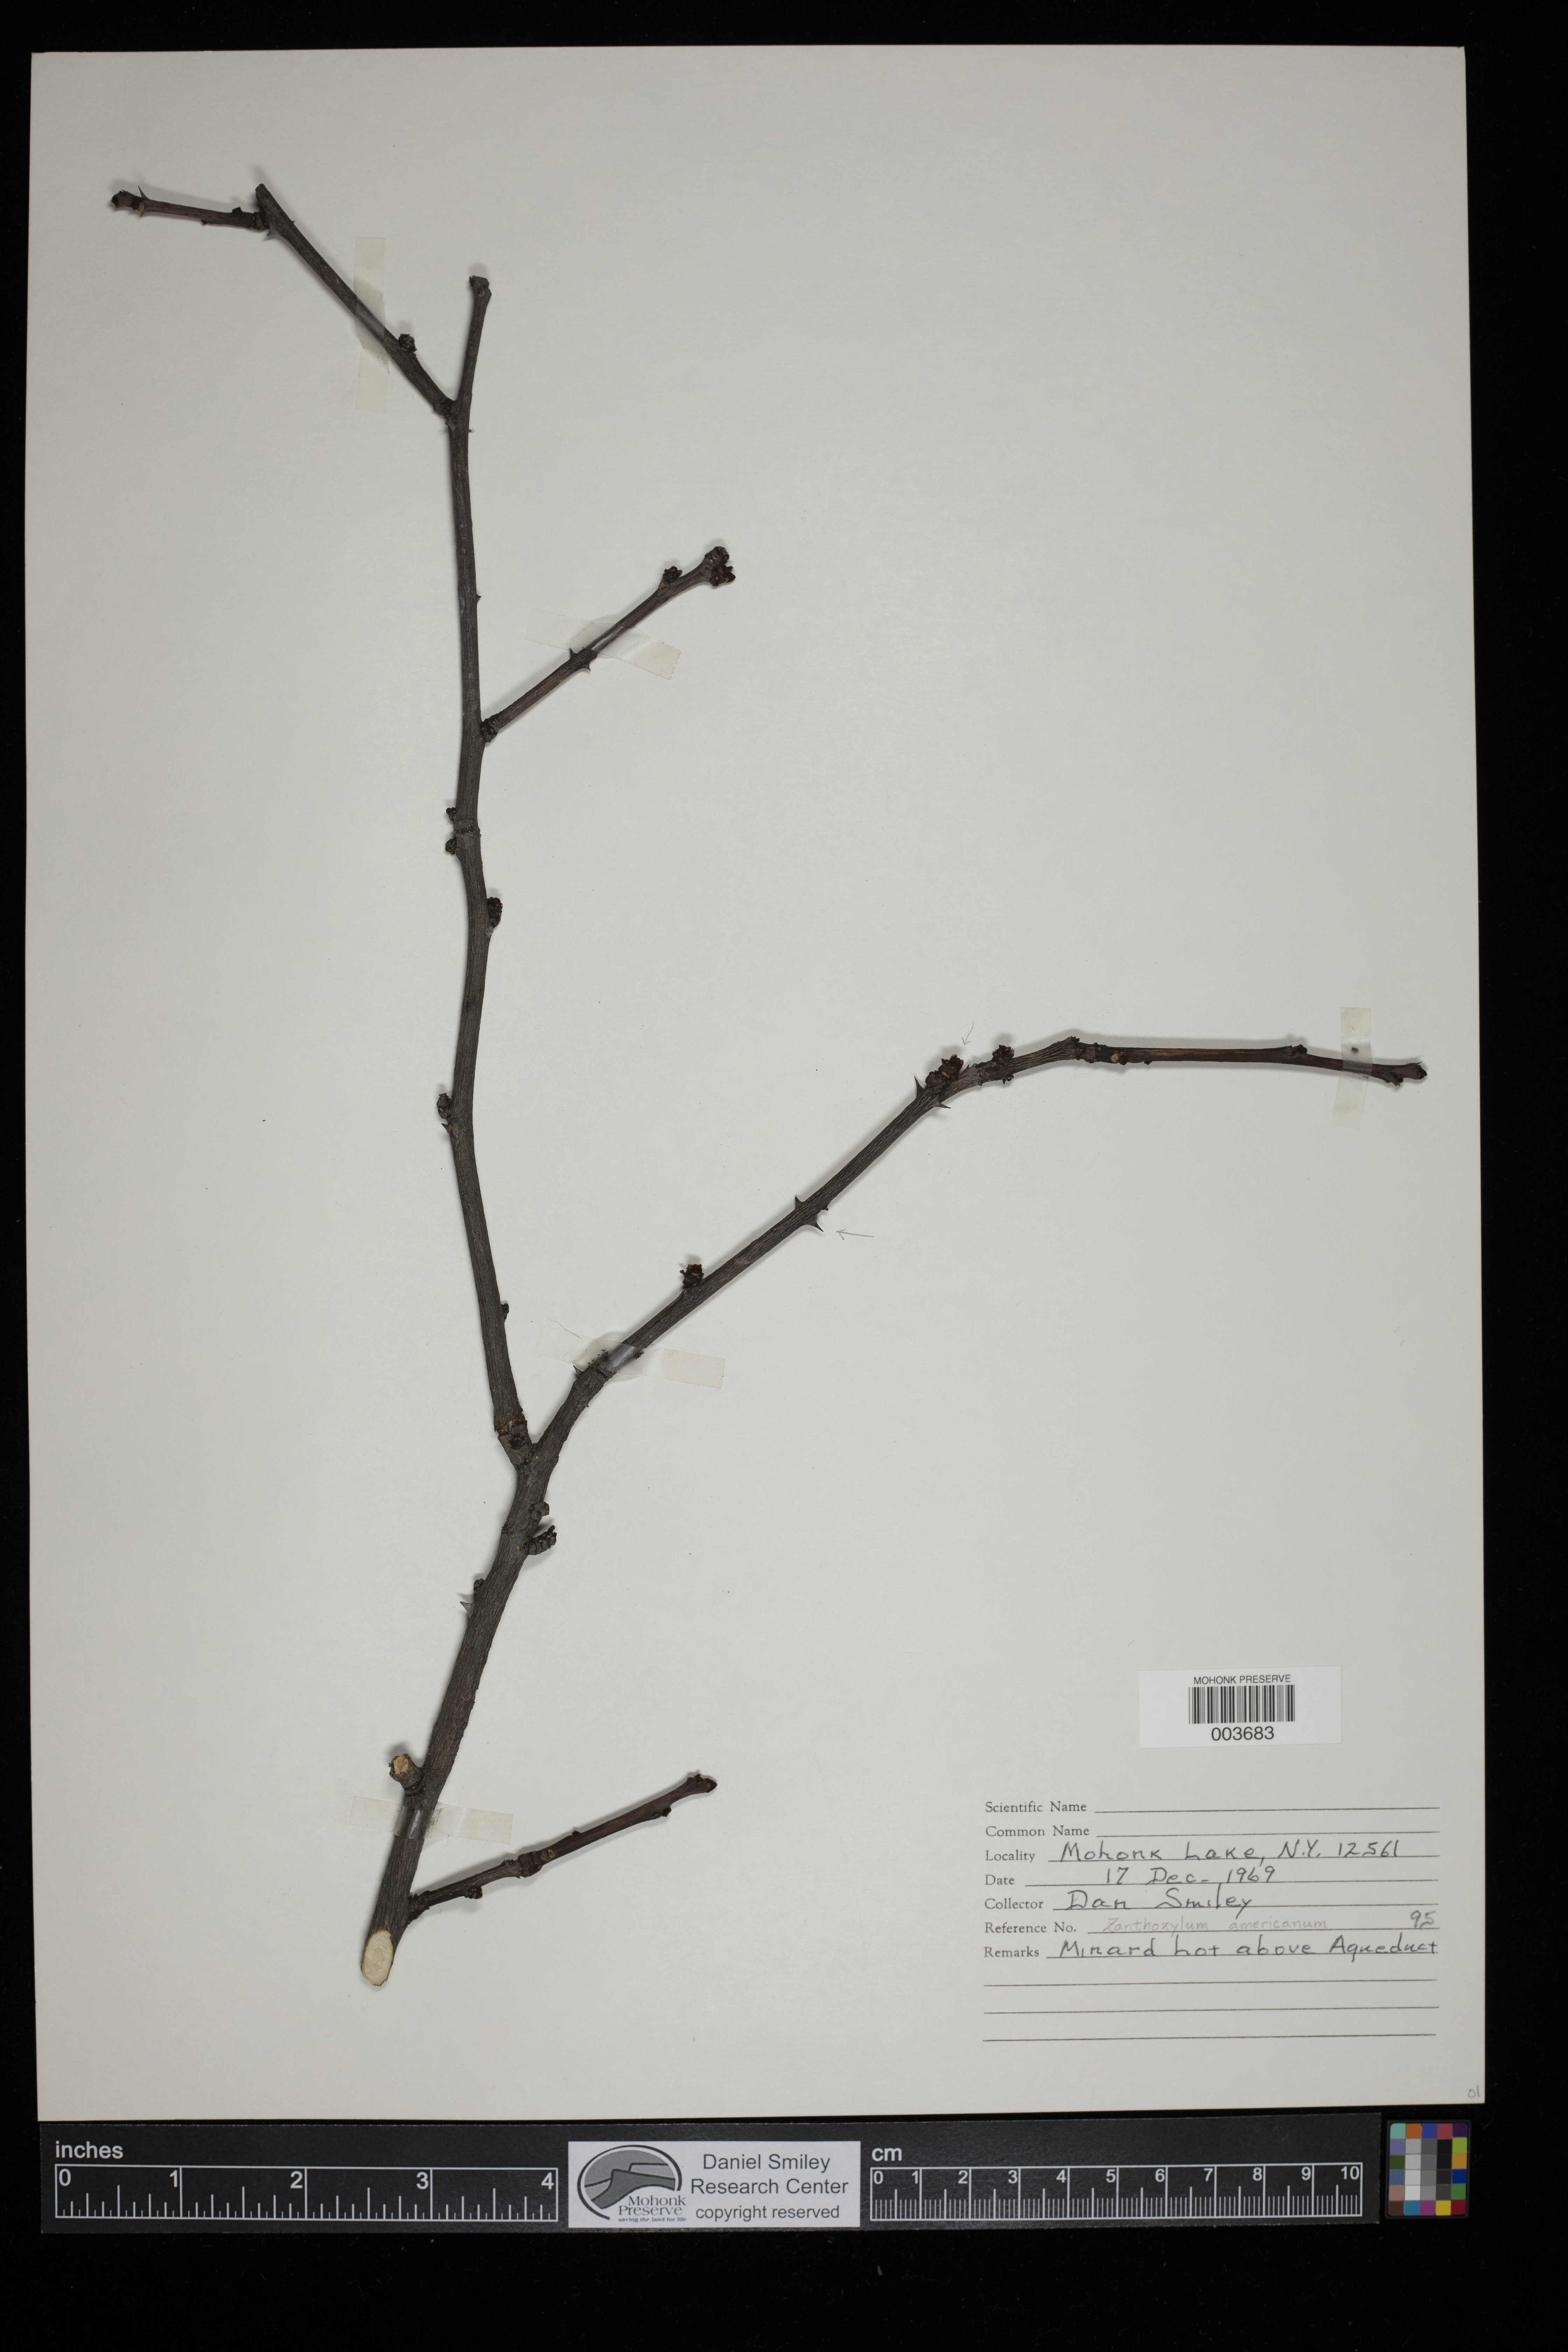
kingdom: Plantae
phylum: Tracheophyta
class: Magnoliopsida
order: Sapindales
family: Rutaceae
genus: Zanthoxylum
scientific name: Zanthoxylum americanum
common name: Northern prickly-ash
